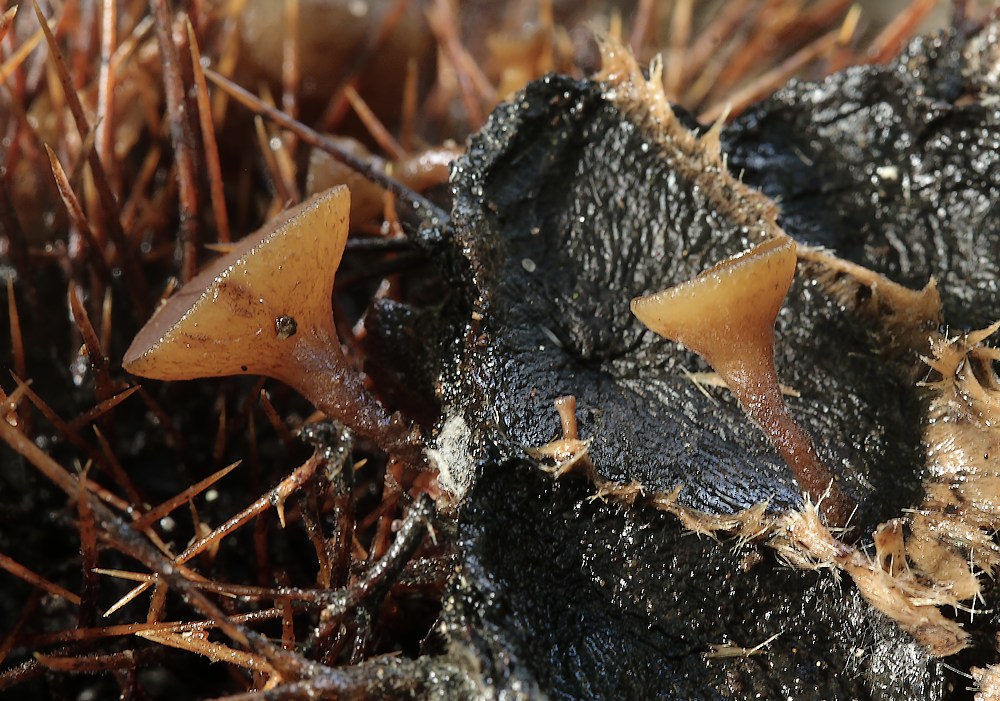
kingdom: Fungi
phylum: Ascomycota
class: Leotiomycetes
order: Helotiales
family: Rutstroemiaceae
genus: Lanzia
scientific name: Lanzia echinophila
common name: kastanie-brunskive
